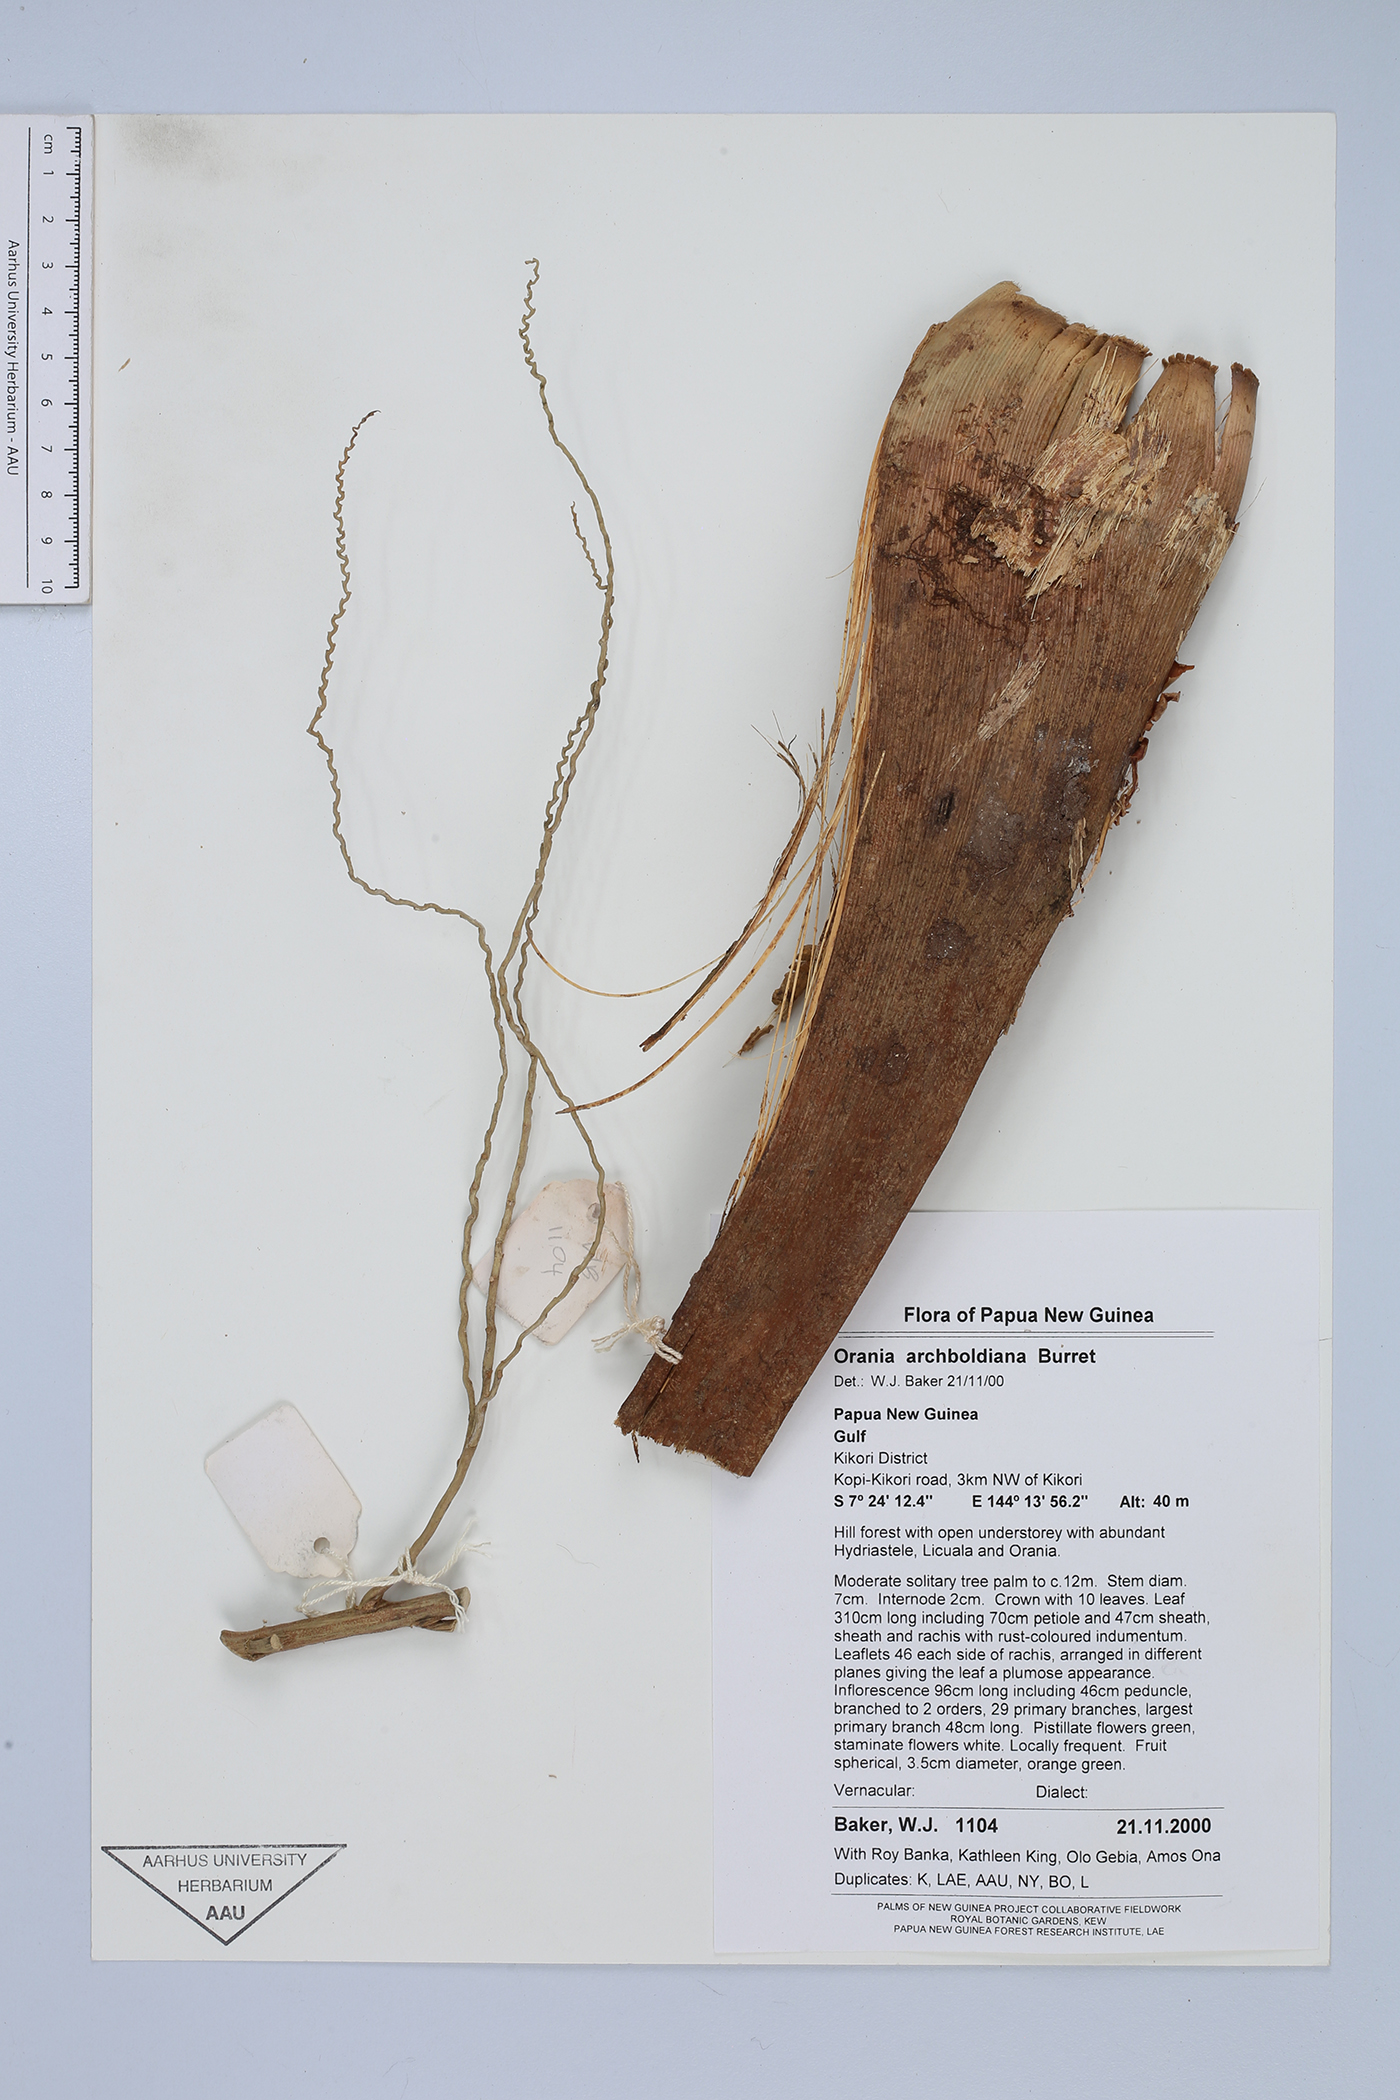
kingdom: Plantae
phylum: Tracheophyta
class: Liliopsida
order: Arecales
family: Arecaceae
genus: Orania
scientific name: Orania archboldiana
